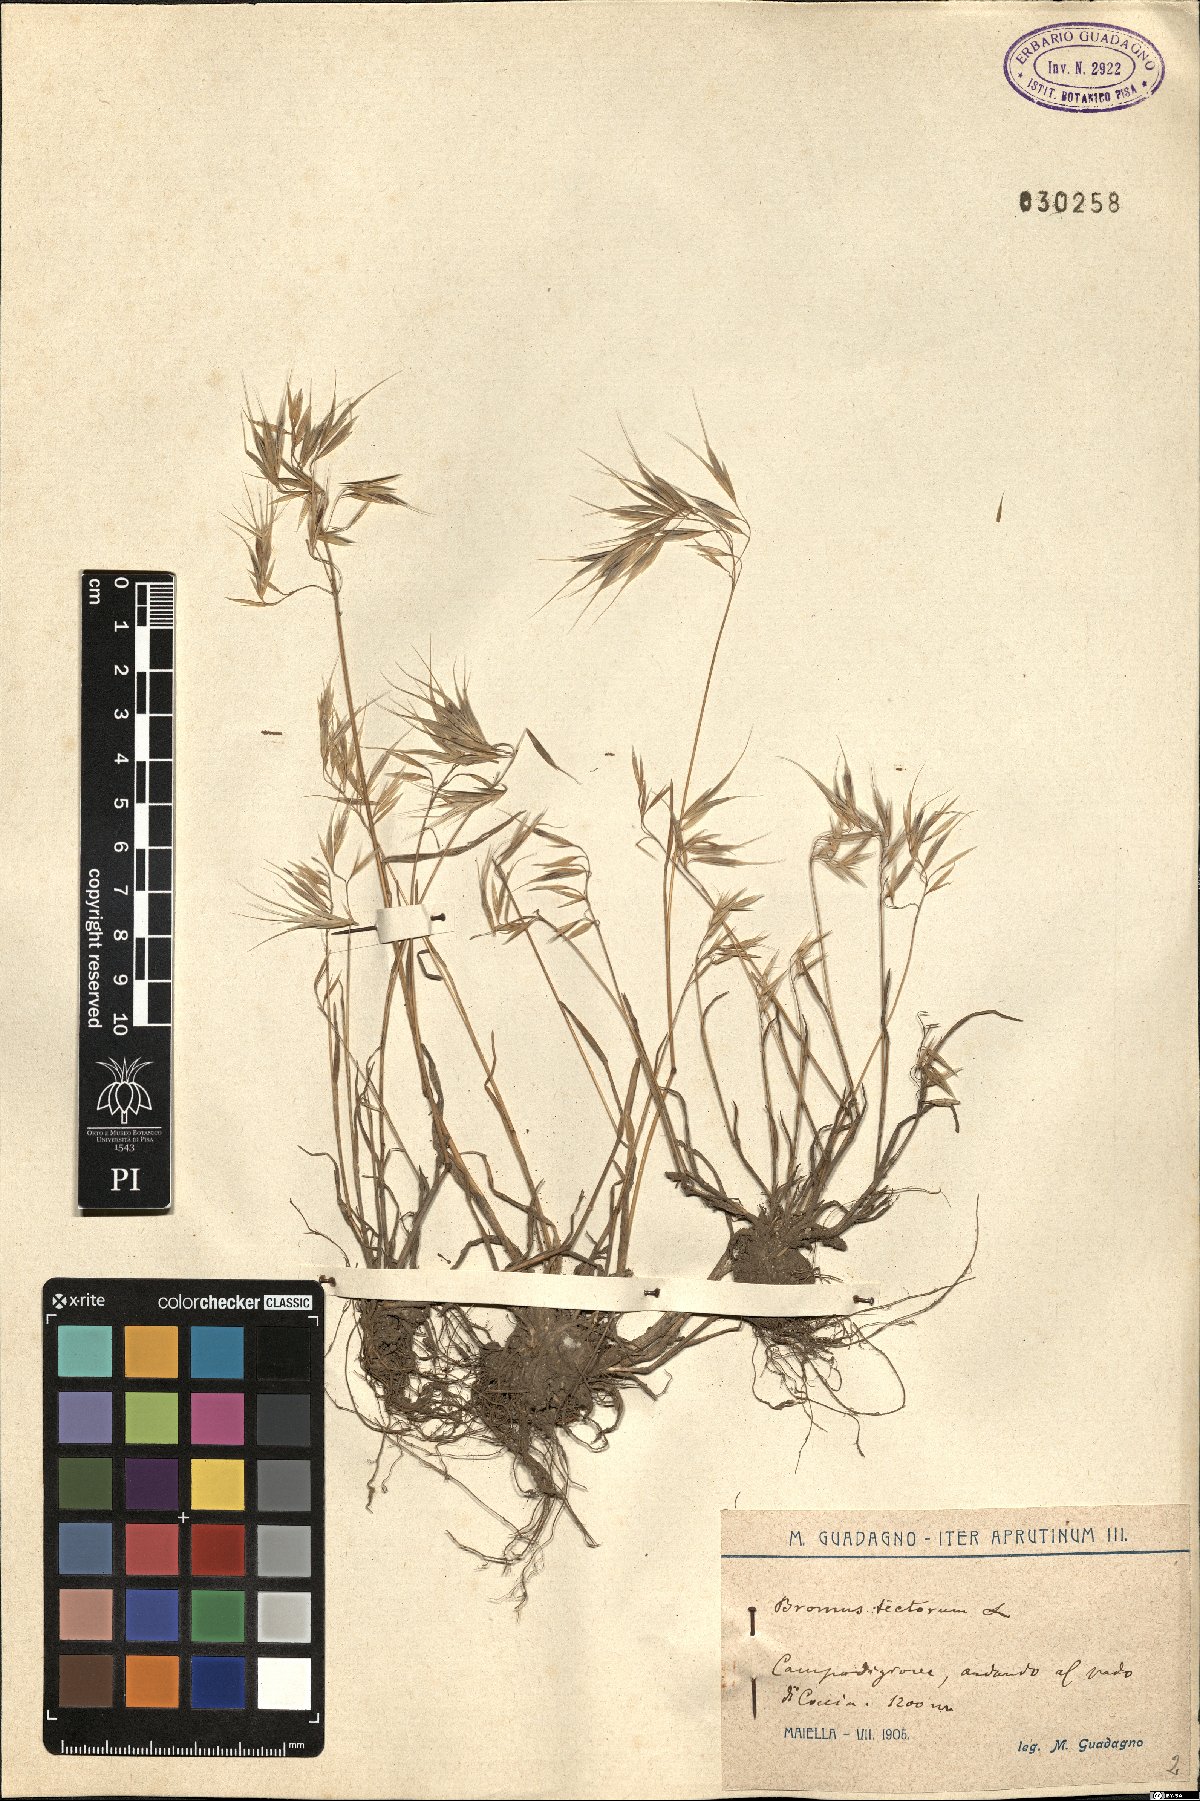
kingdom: Plantae
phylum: Tracheophyta
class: Liliopsida
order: Poales
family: Poaceae
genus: Bromus
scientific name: Bromus tectorum
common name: Cheatgrass
